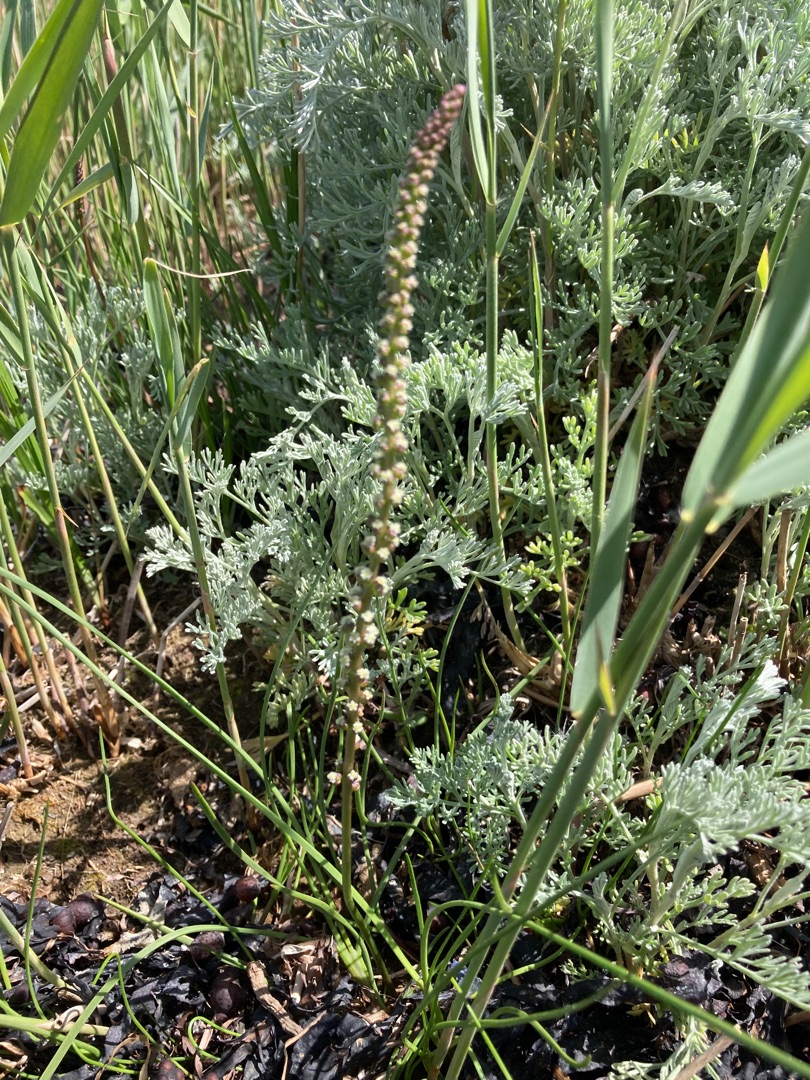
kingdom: Plantae
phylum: Tracheophyta
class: Liliopsida
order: Alismatales
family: Juncaginaceae
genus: Triglochin
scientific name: Triglochin maritima
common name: Strand-trehage
